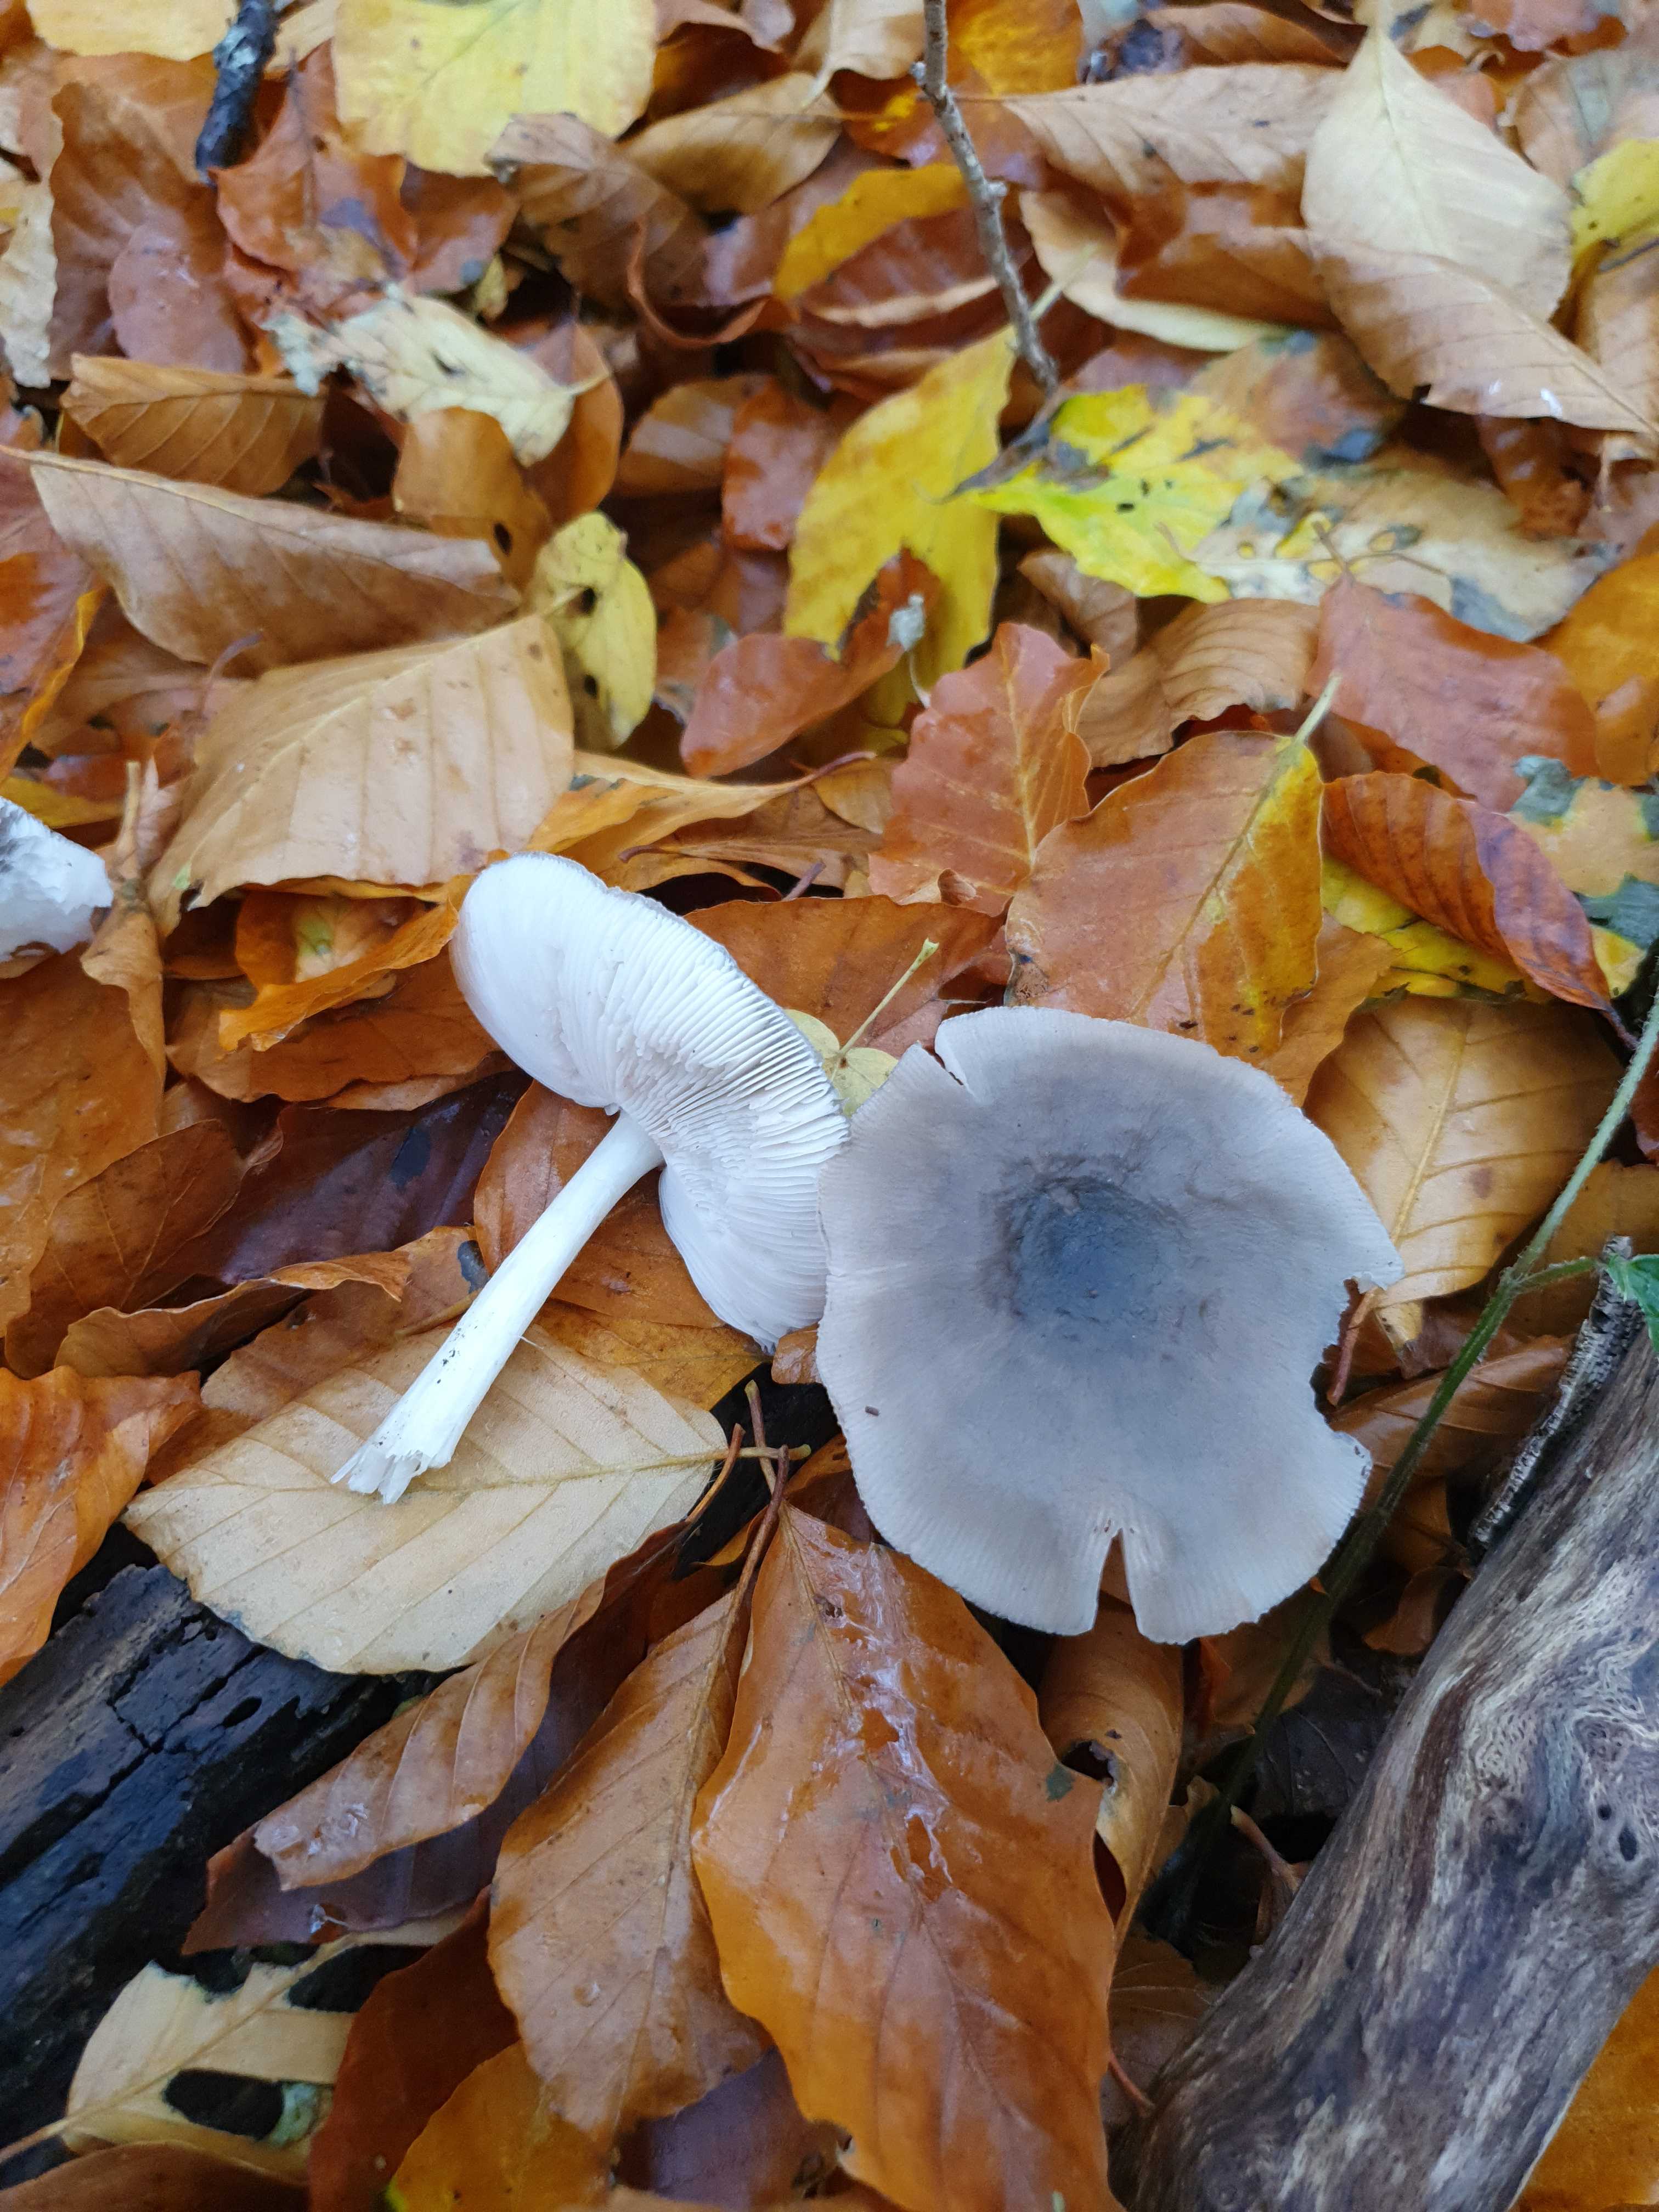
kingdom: Fungi
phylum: Basidiomycota
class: Agaricomycetes
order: Agaricales
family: Pluteaceae
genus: Pluteus
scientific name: Pluteus salicinus
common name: stiv skærmhat
